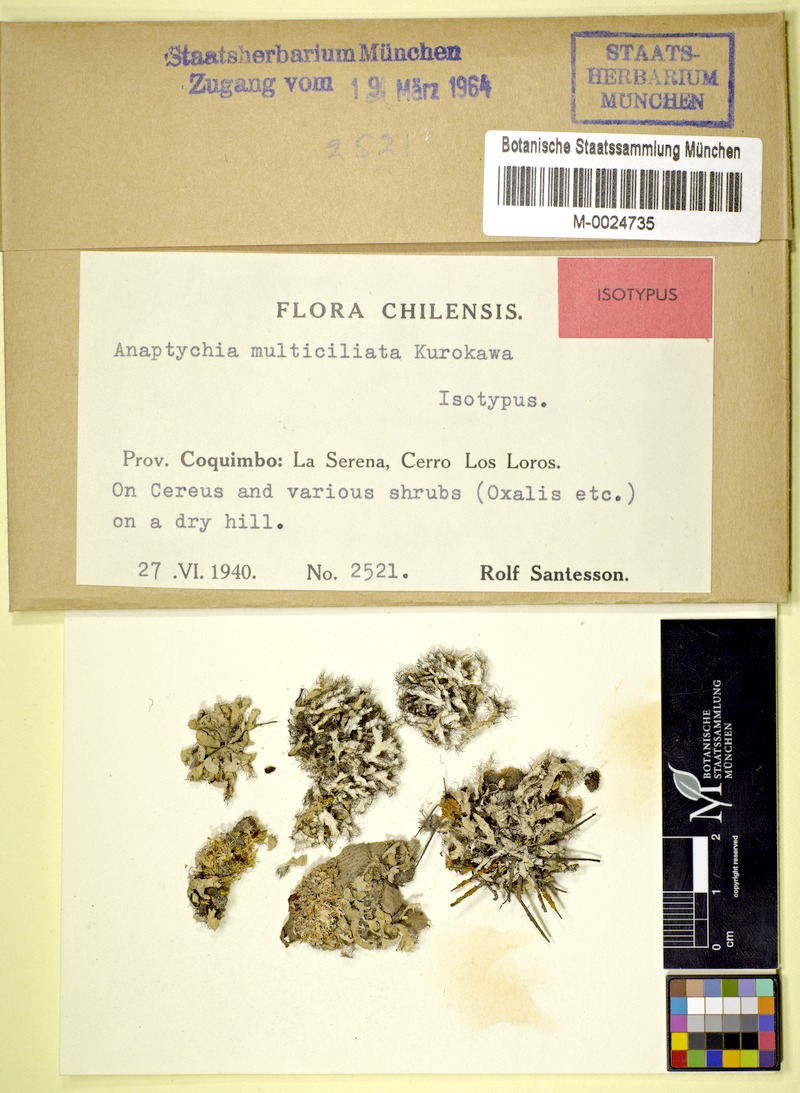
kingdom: Fungi
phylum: Ascomycota
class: Lecanoromycetes
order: Caliciales
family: Physciaceae
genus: Heterodermia
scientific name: Heterodermia multiciliata
